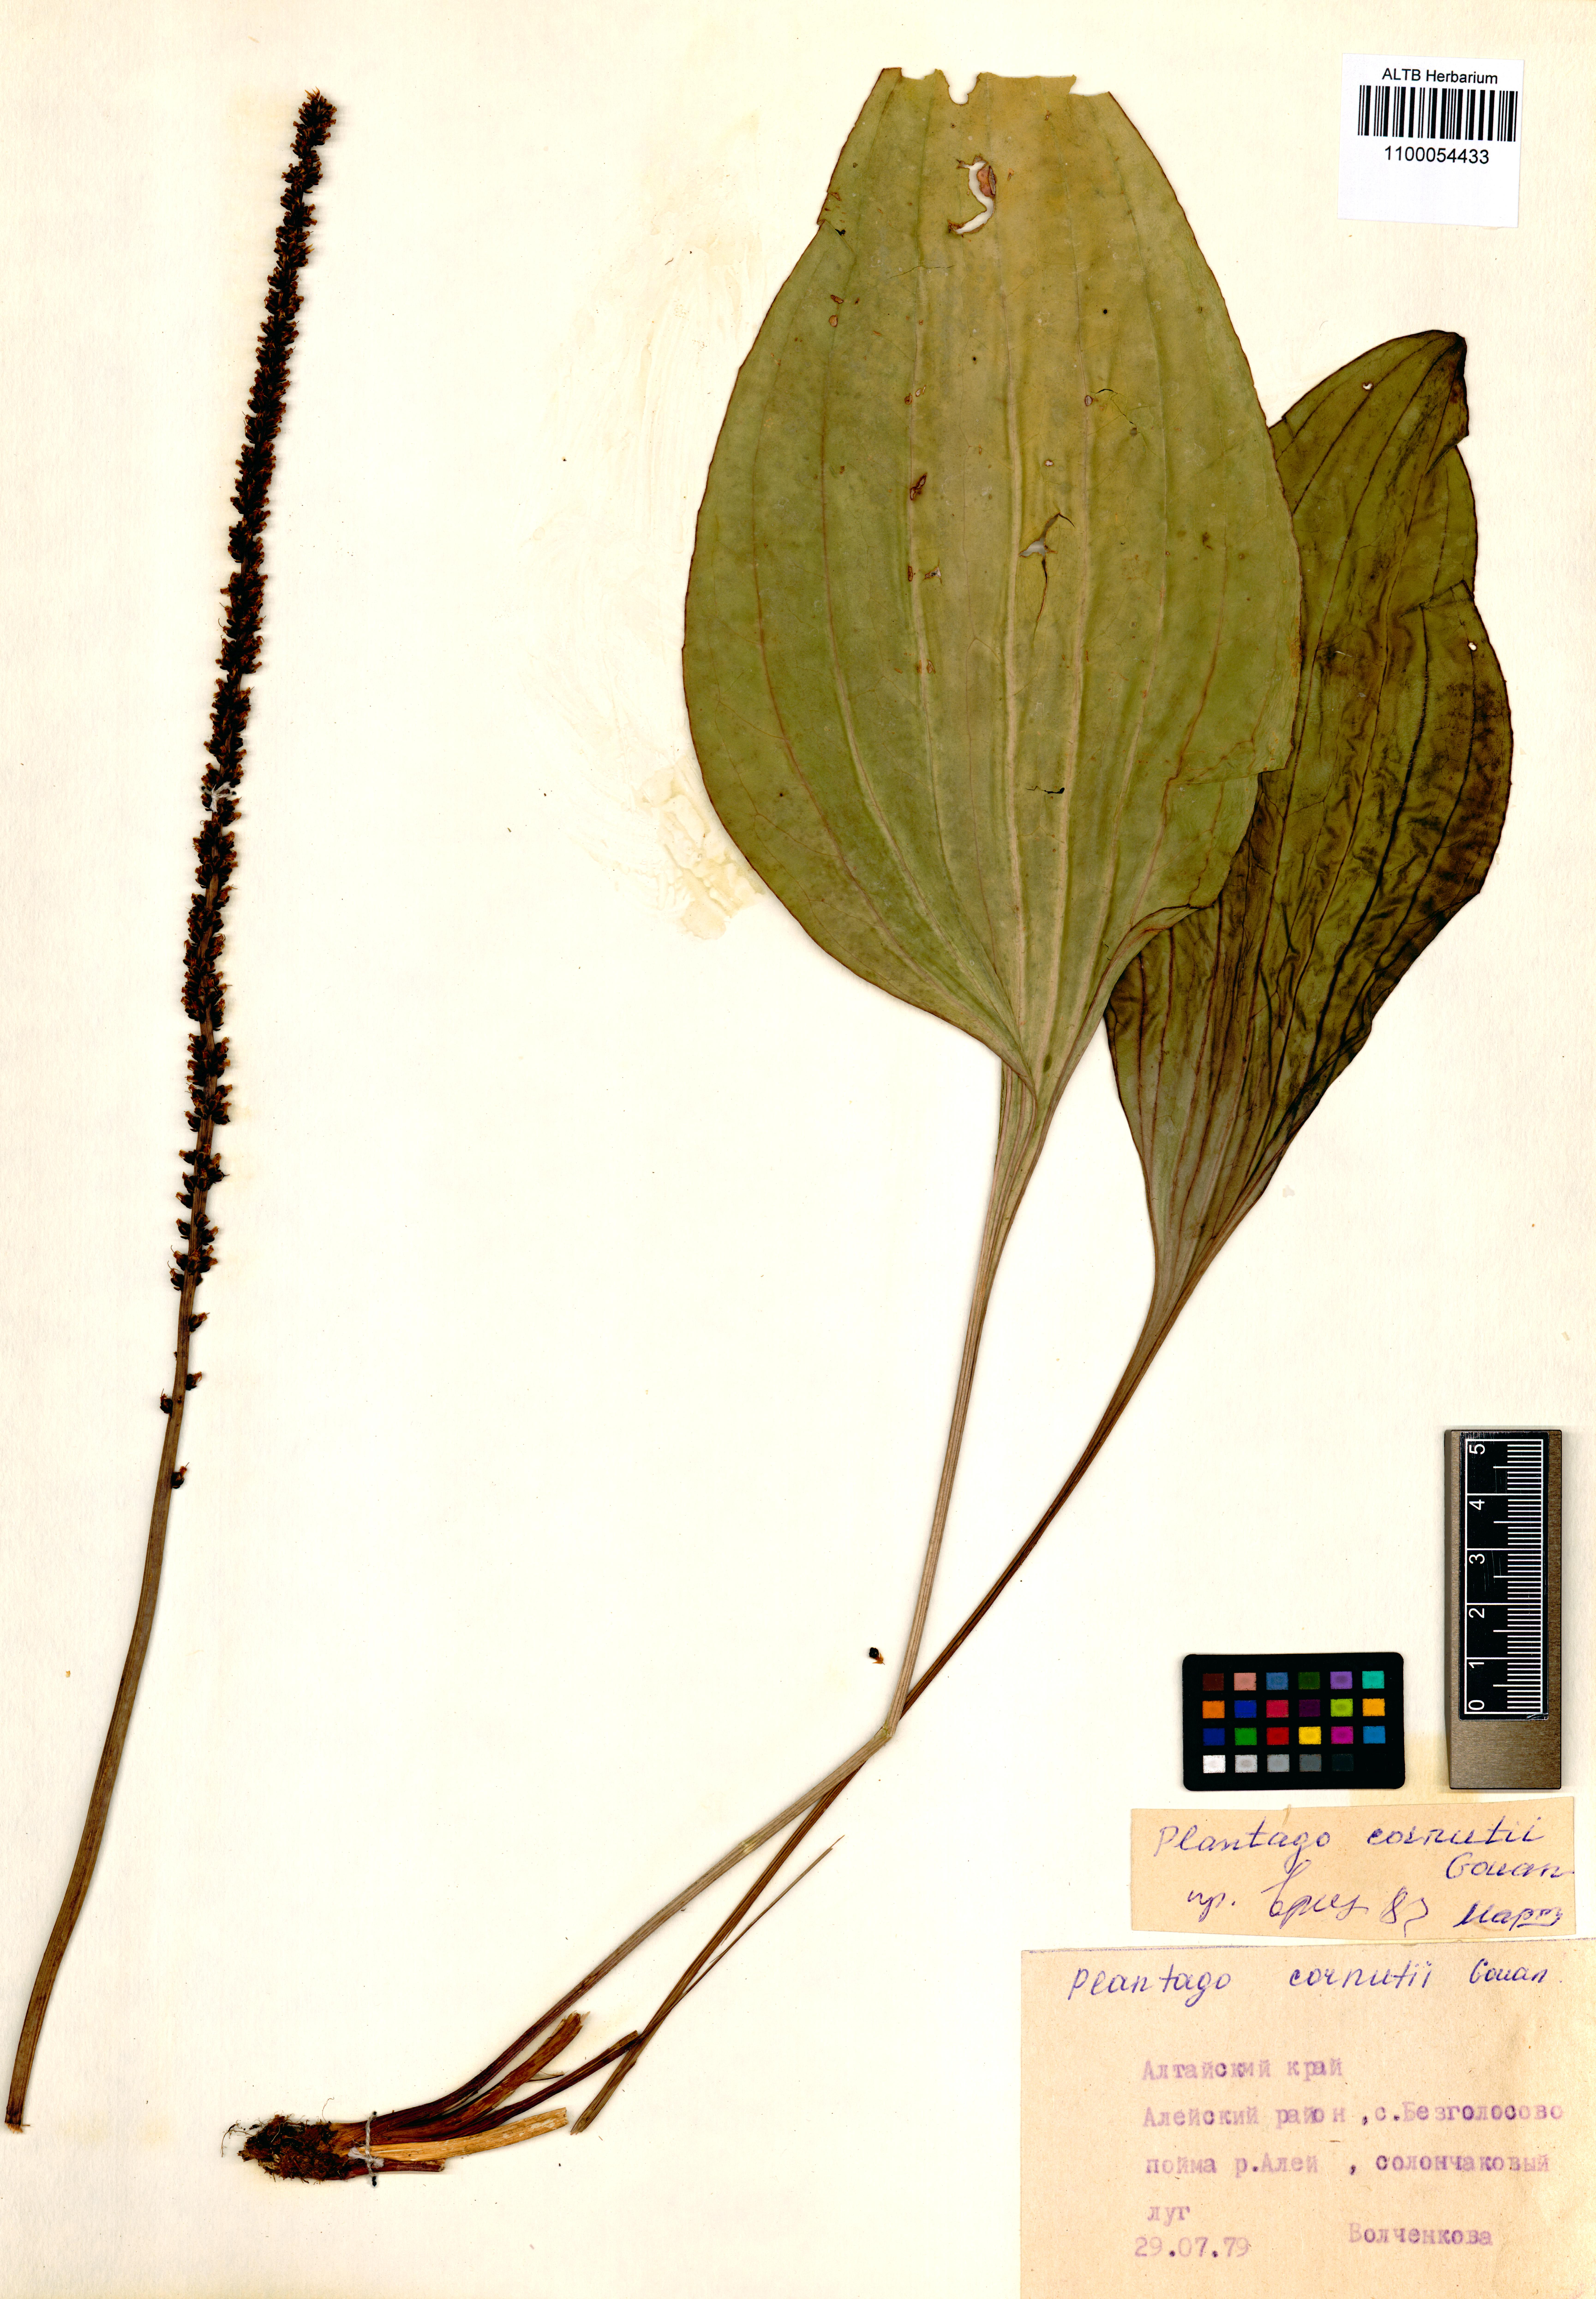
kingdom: Plantae
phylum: Tracheophyta
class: Magnoliopsida
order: Lamiales
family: Plantaginaceae
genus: Plantago
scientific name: Plantago cornuti
